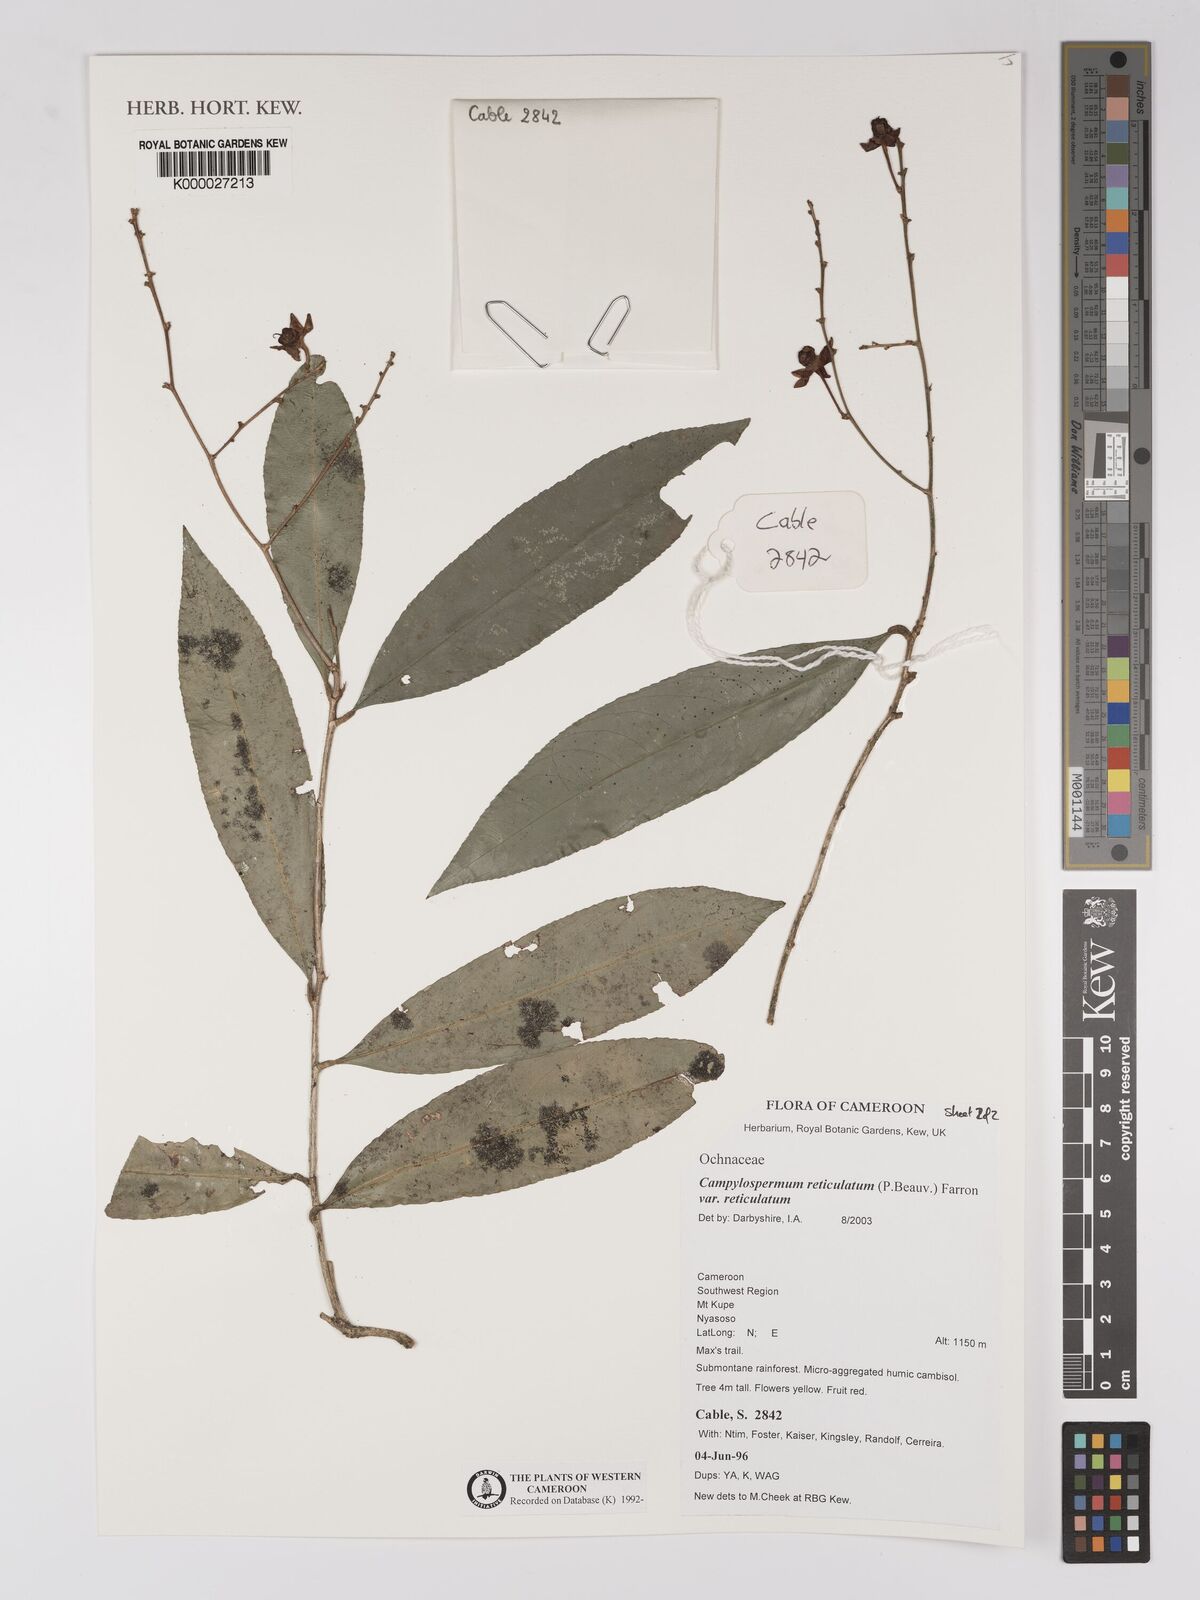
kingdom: Plantae
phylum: Tracheophyta
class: Magnoliopsida
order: Geraniales
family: Geraniaceae
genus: Geranium
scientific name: Geranium arabicum
